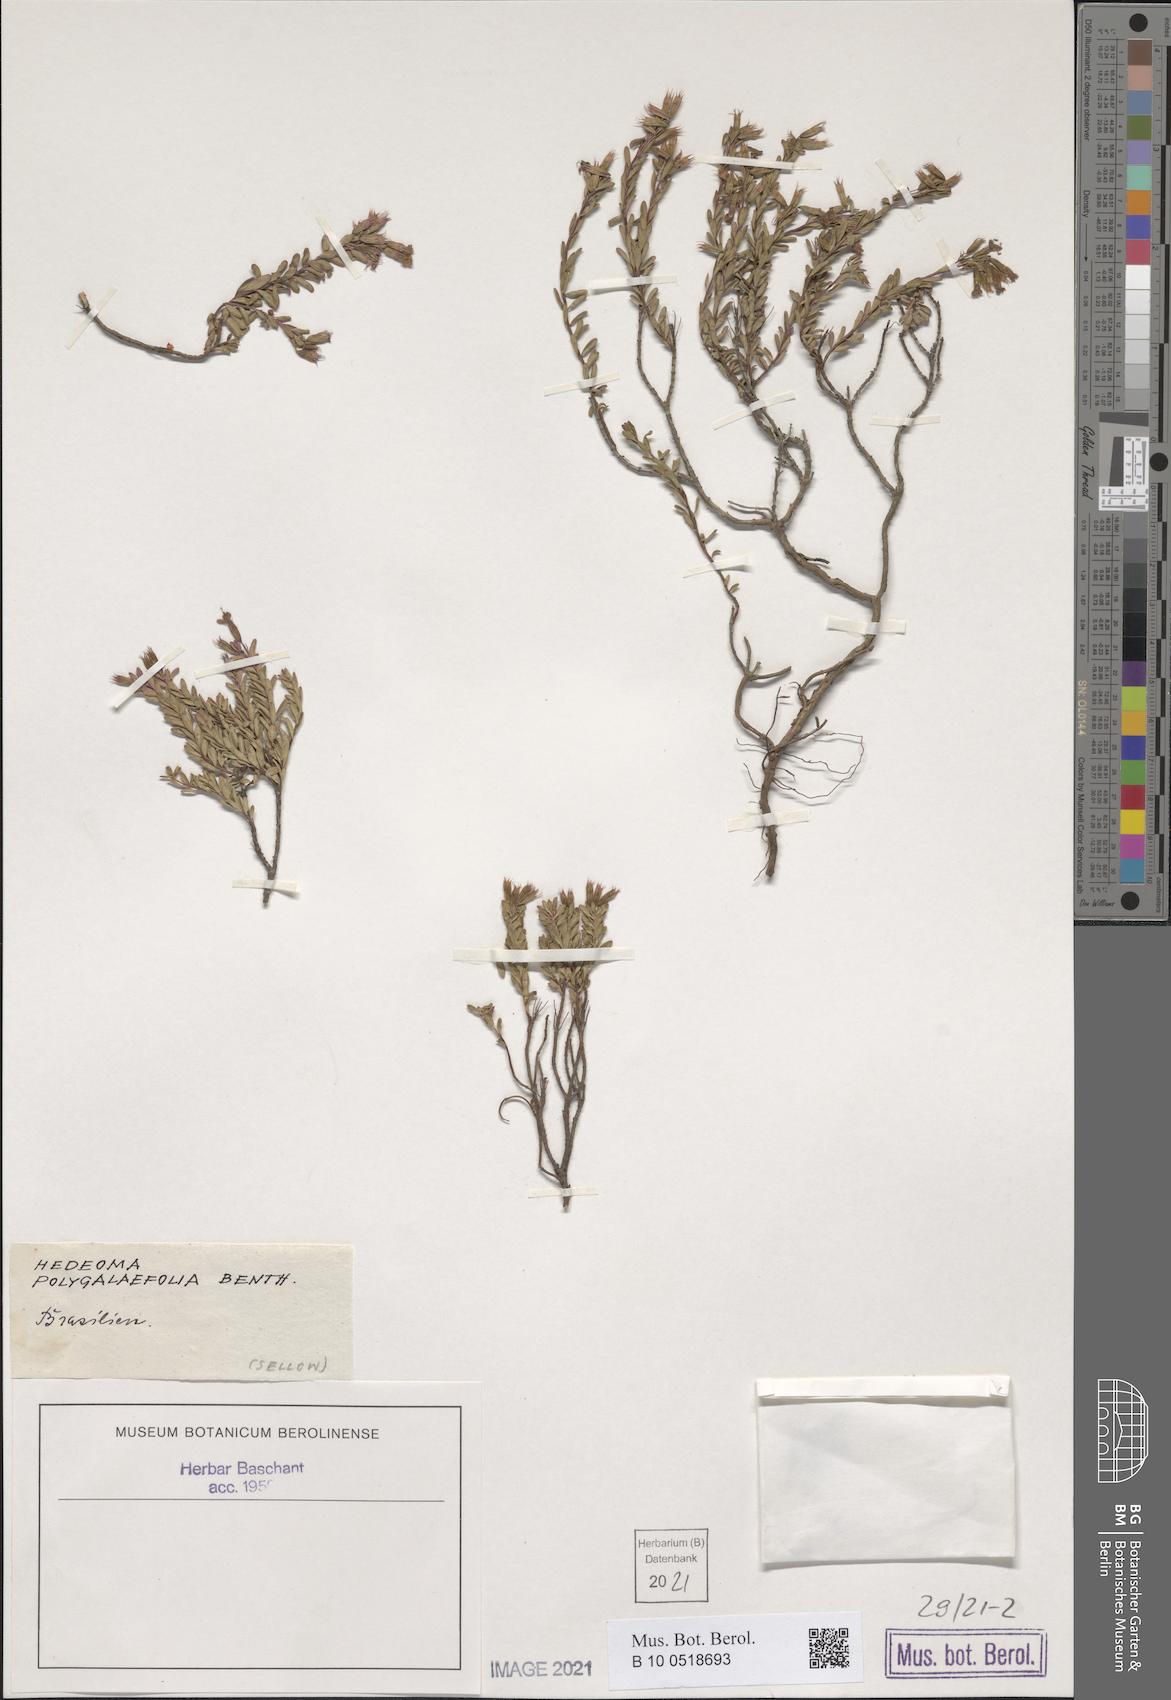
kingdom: Plantae
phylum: Tracheophyta
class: Magnoliopsida
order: Lamiales
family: Lamiaceae
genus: Hedeoma
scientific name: Hedeoma polygalifolia
